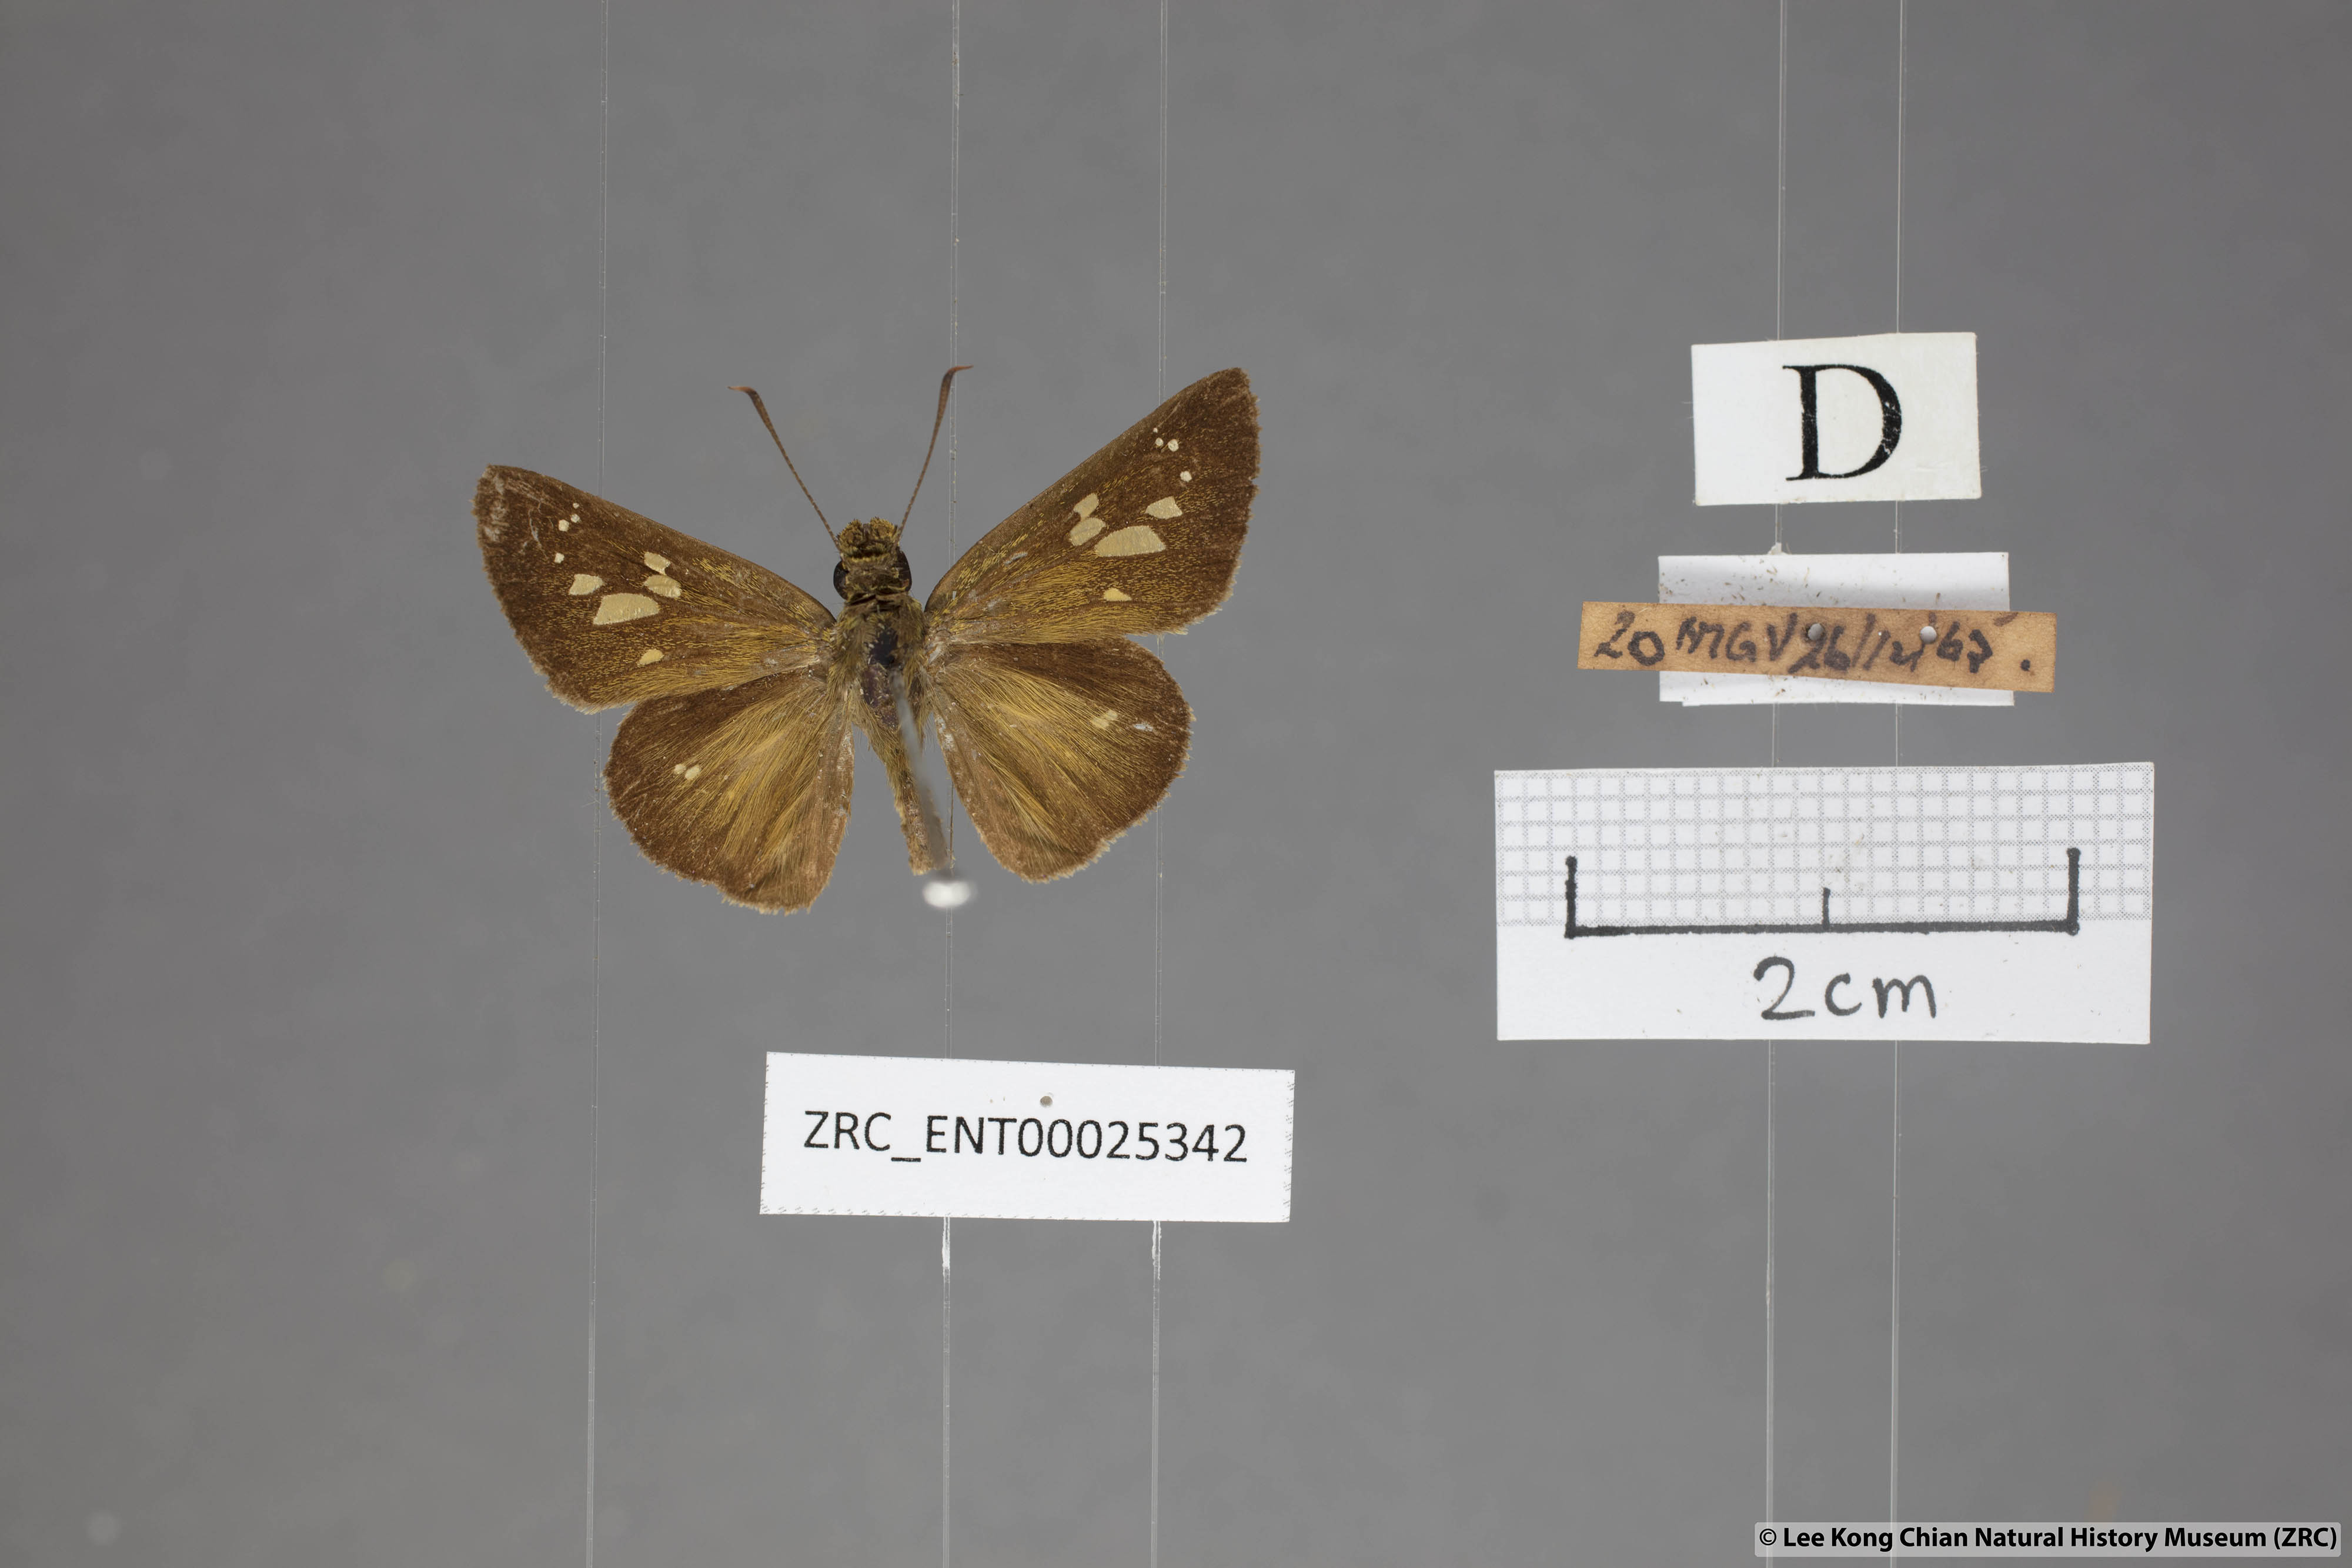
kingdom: Animalia
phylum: Arthropoda
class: Insecta
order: Lepidoptera
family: Hesperiidae
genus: Polytremis
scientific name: Polytremis lubricans
